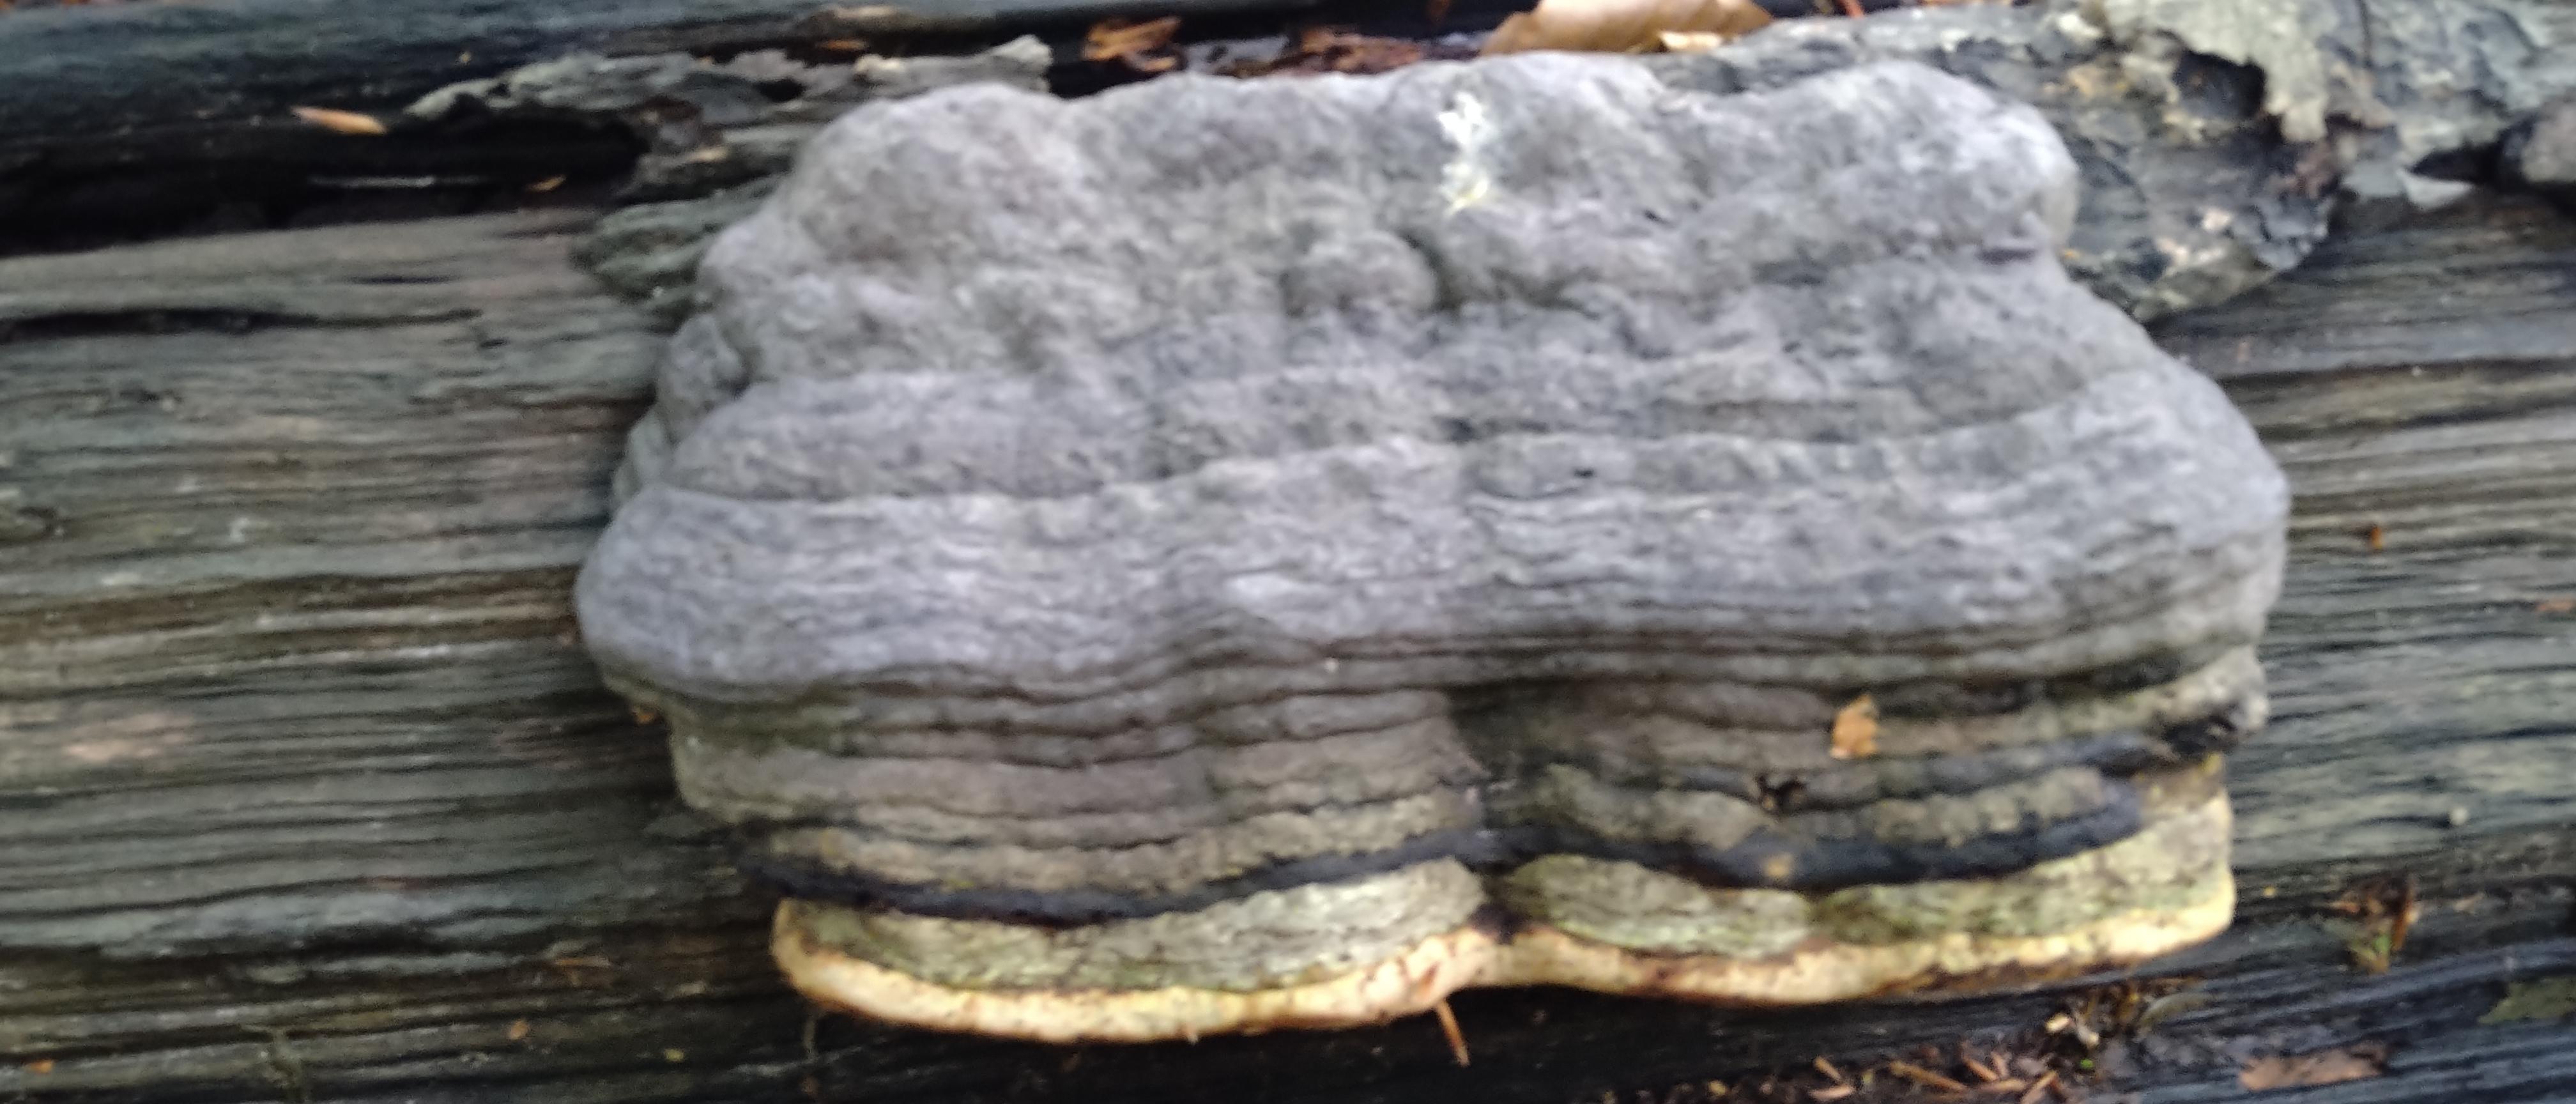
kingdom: Fungi
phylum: Basidiomycota
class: Agaricomycetes
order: Polyporales
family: Polyporaceae
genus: Fomes
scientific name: Fomes fomentarius
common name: tøndersvamp
